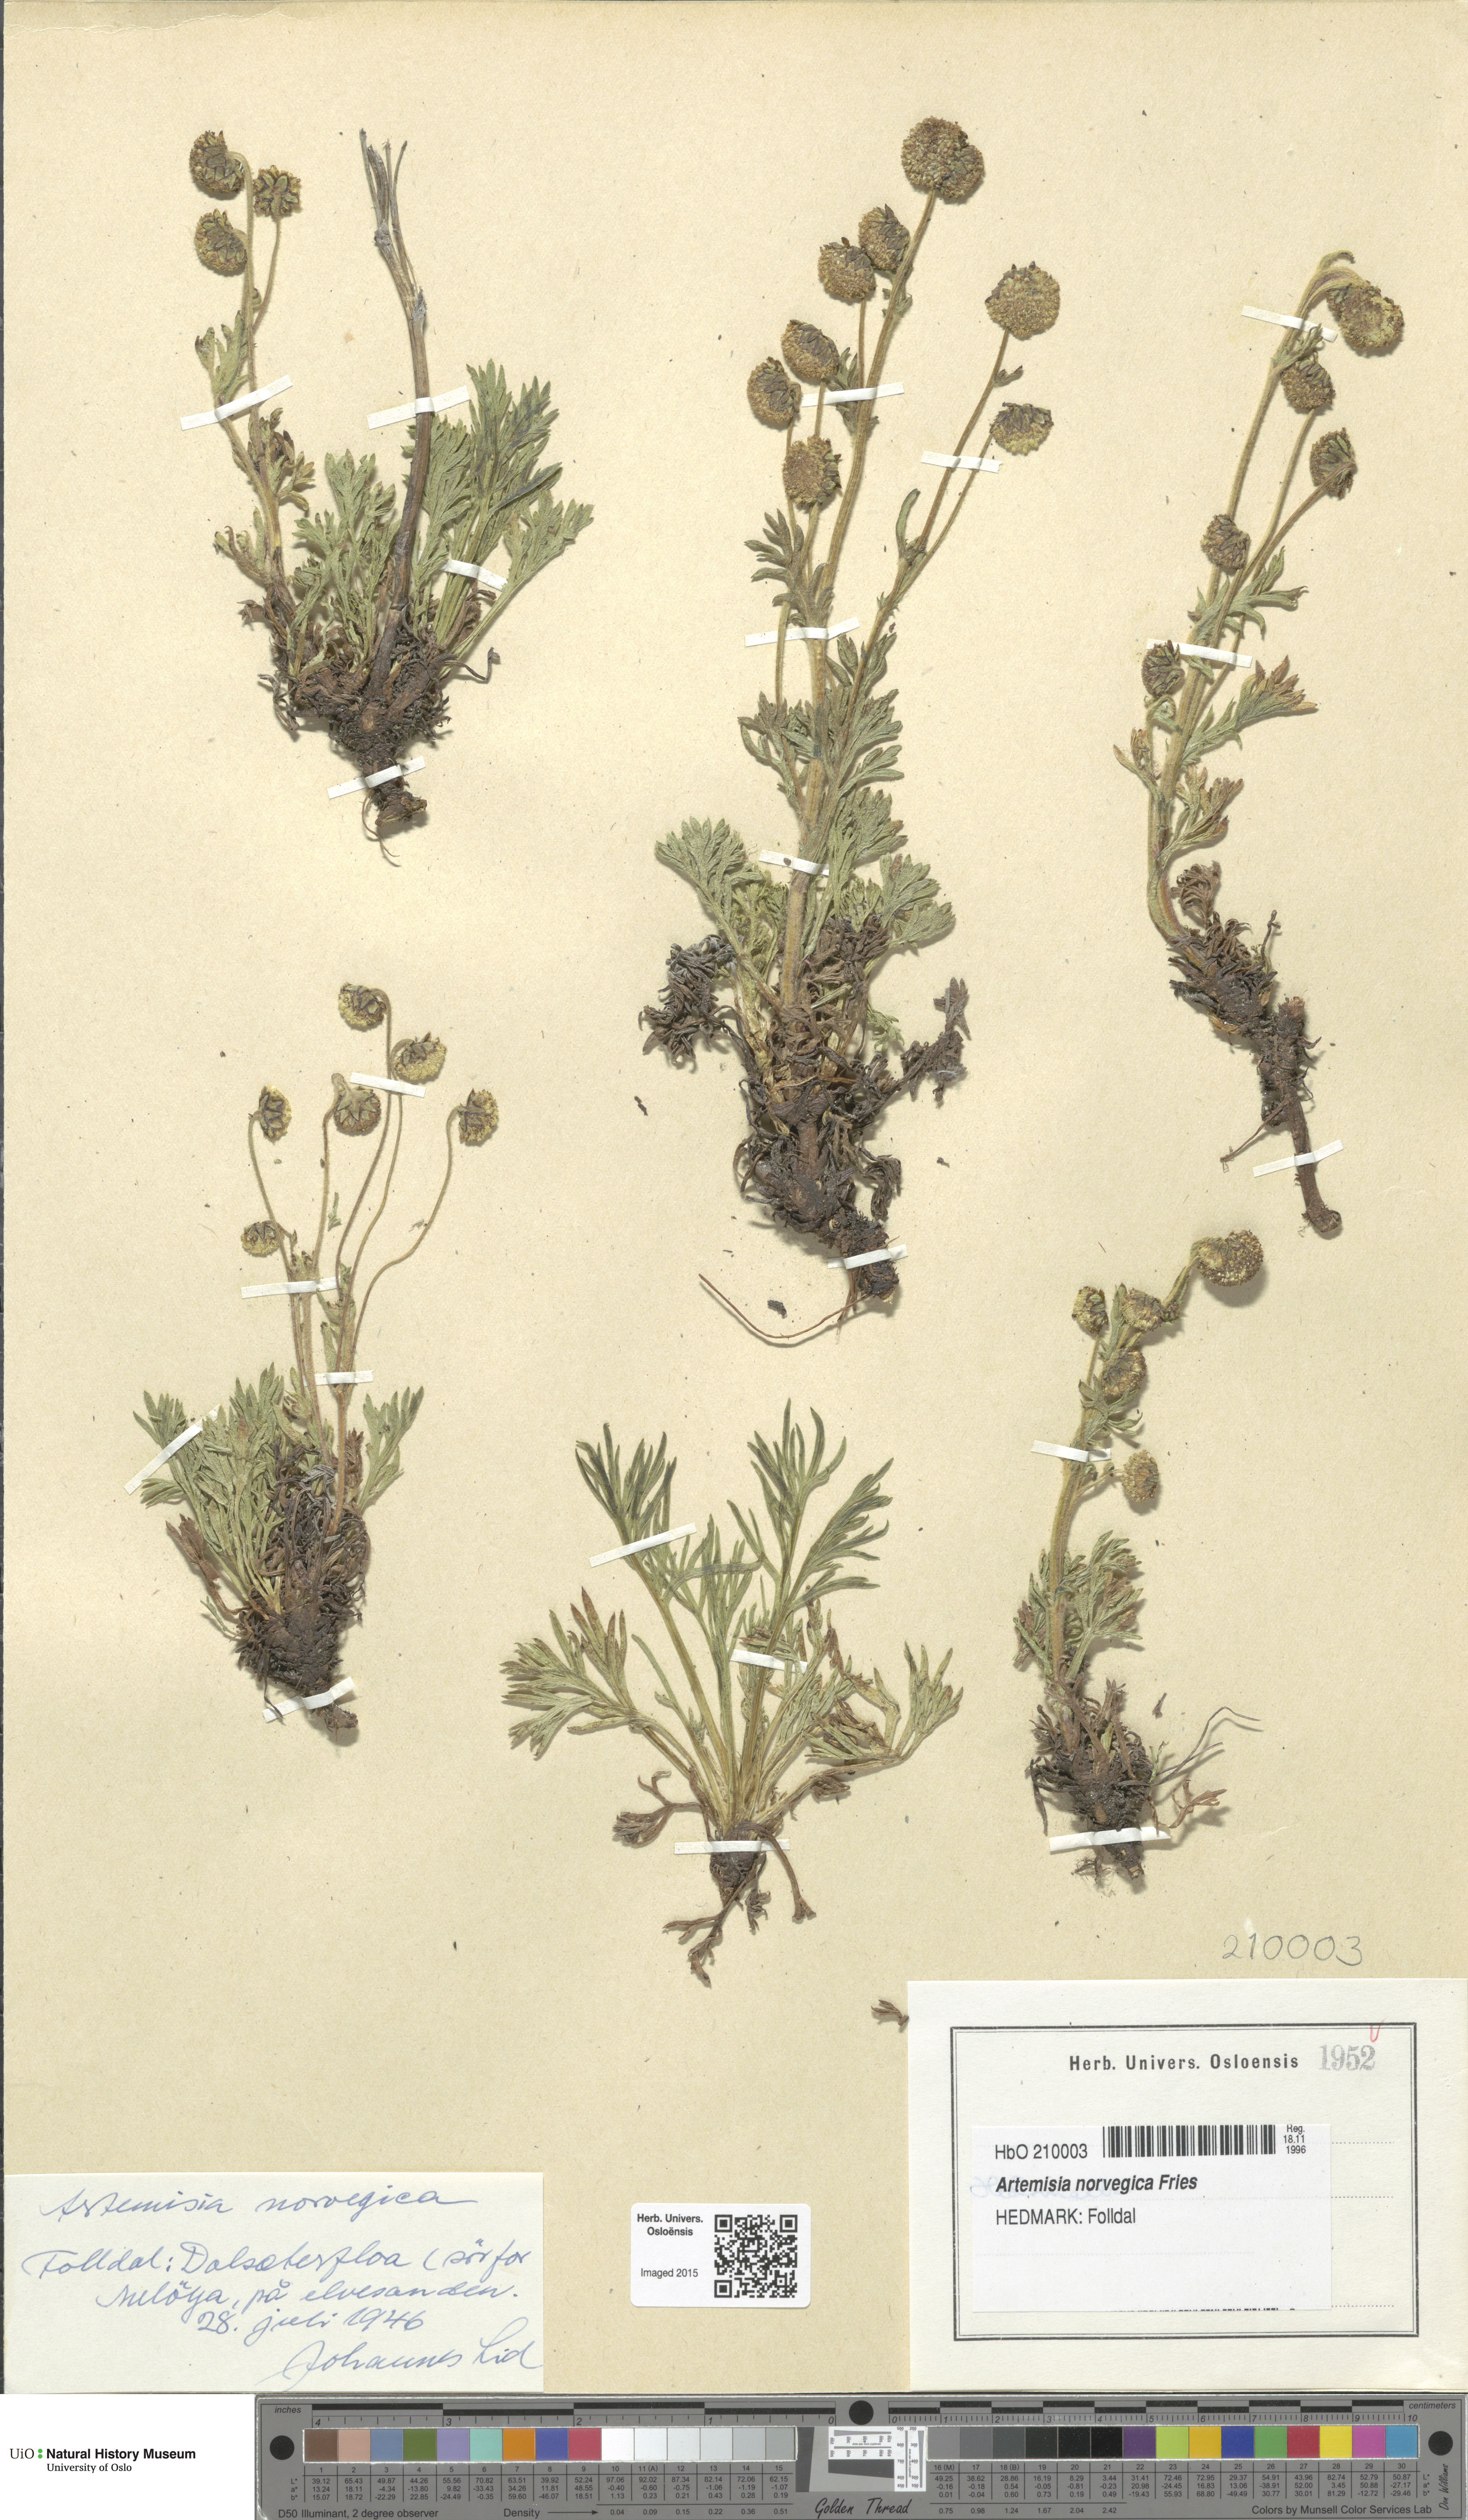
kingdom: Plantae
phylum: Tracheophyta
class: Magnoliopsida
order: Asterales
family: Asteraceae
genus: Artemisia
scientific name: Artemisia norvegica
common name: Norwegian mugwort
